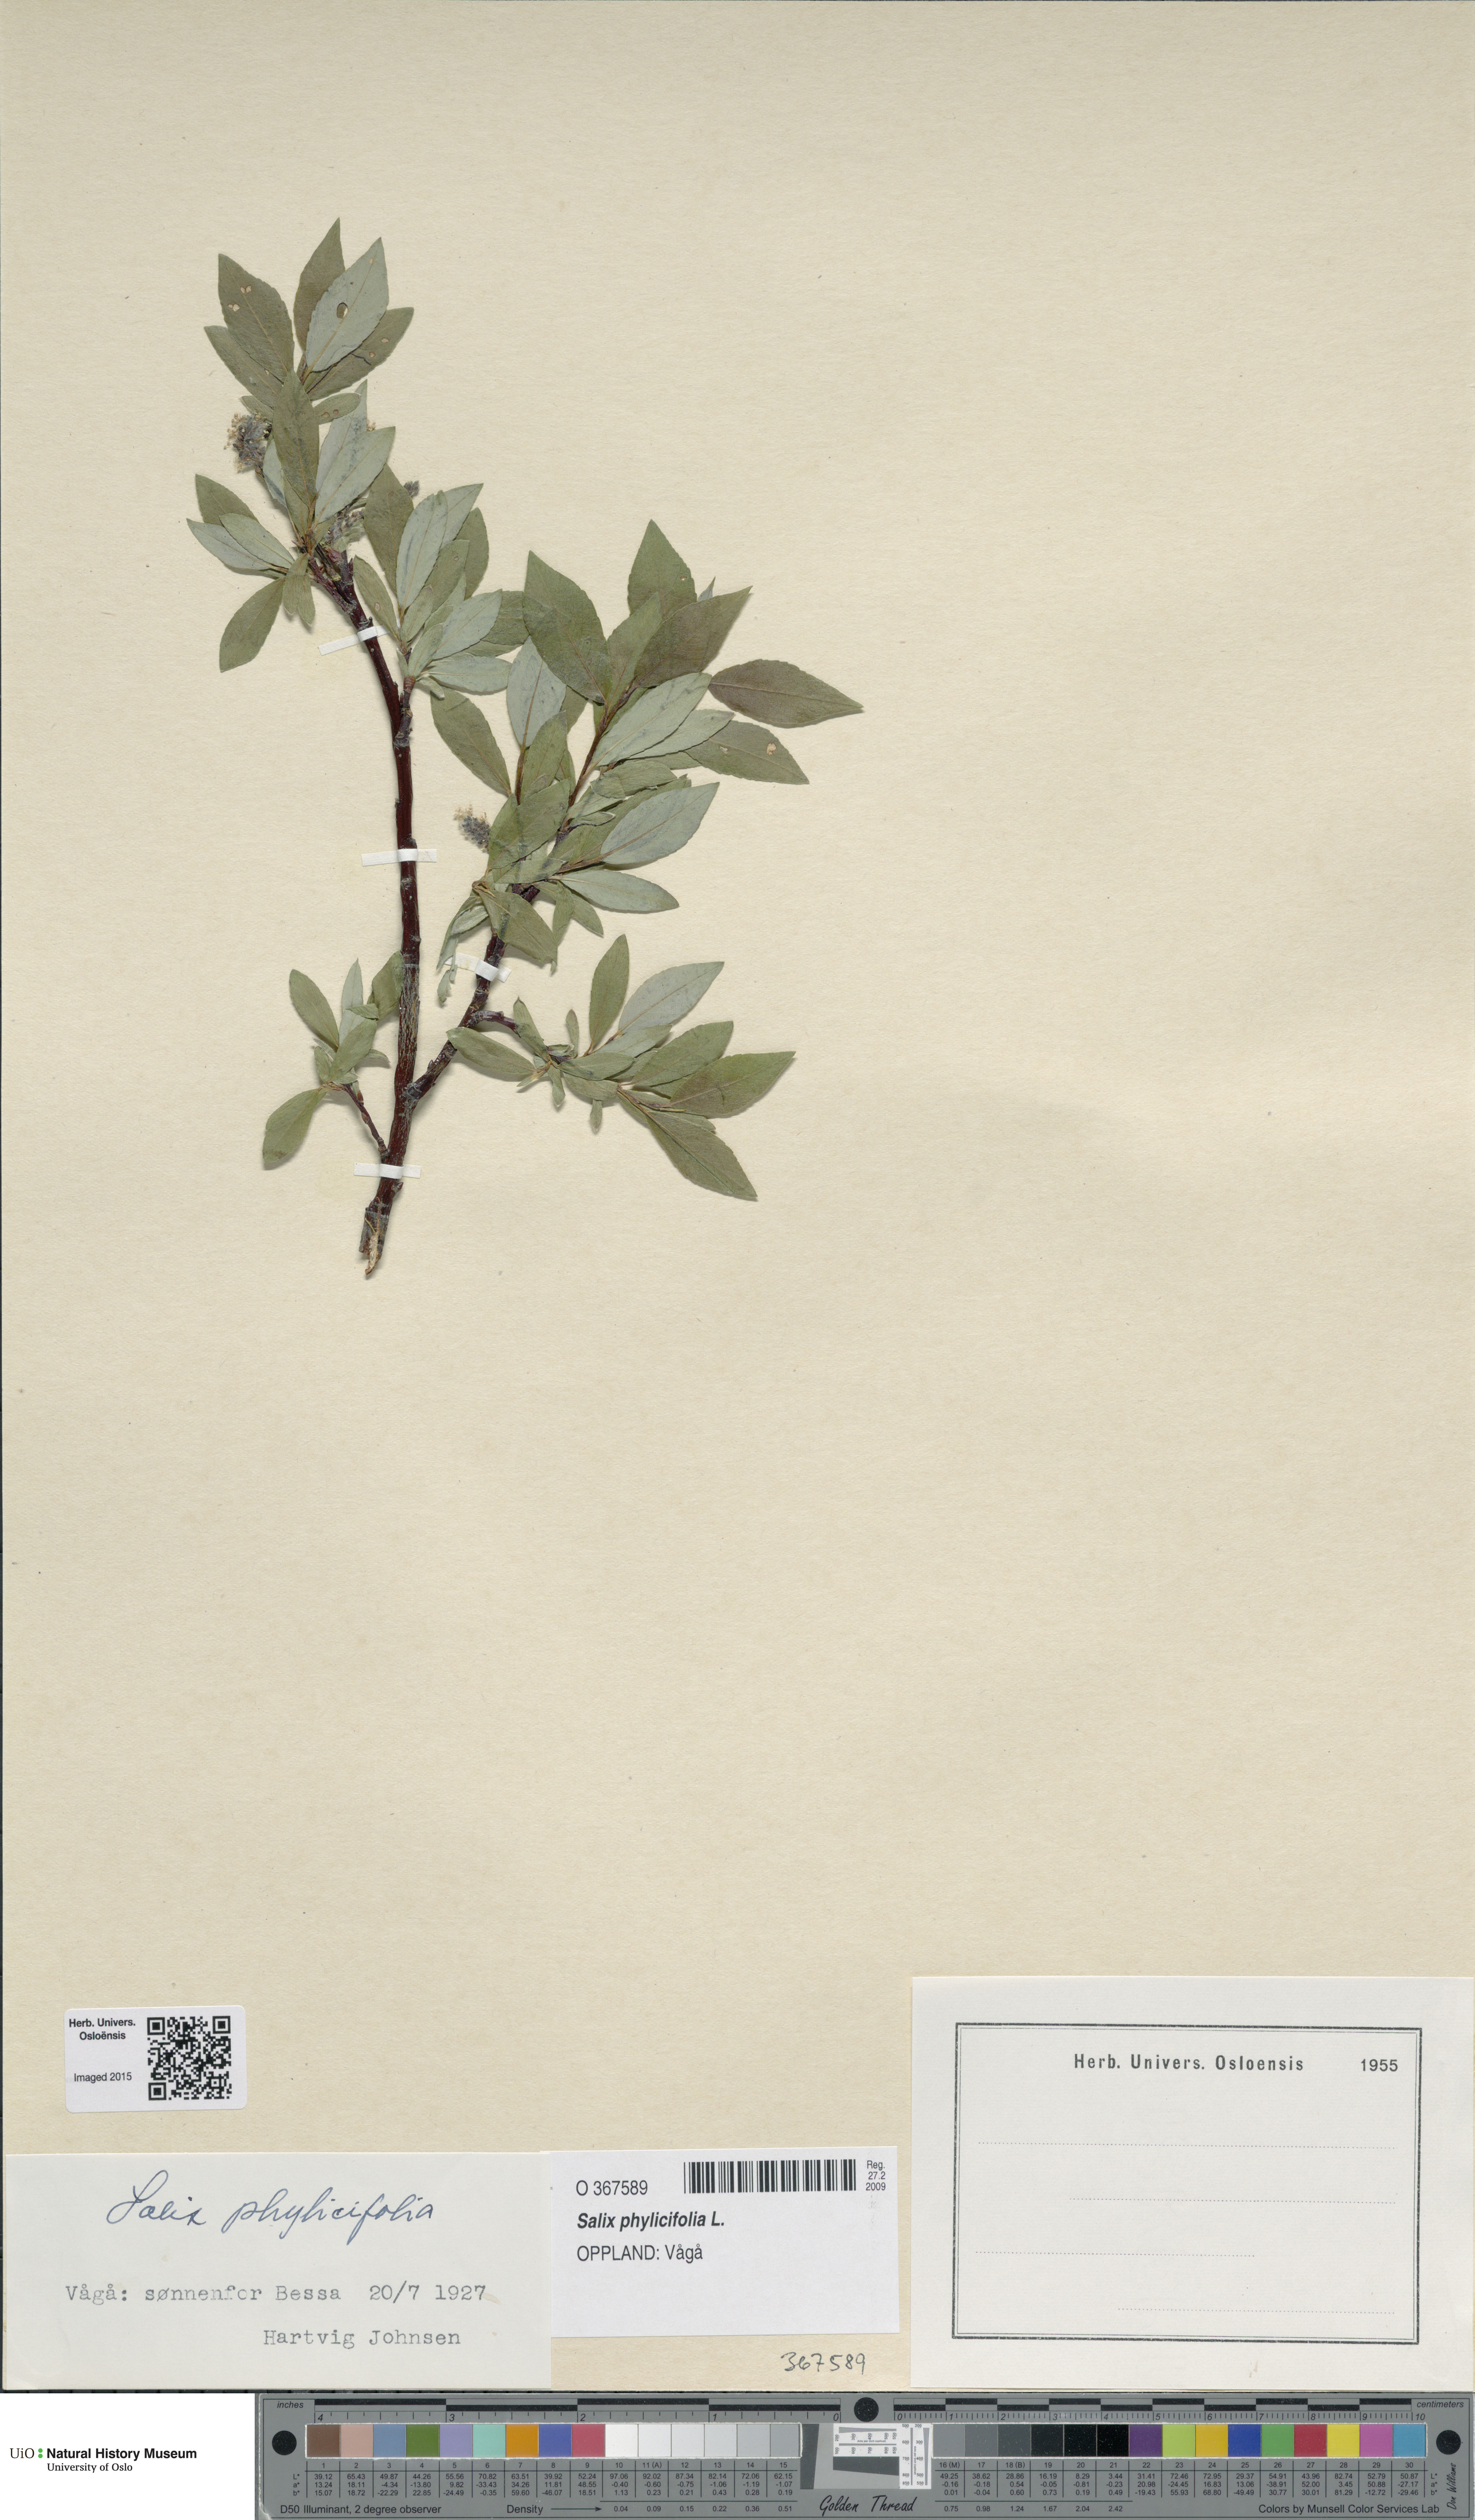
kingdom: Plantae
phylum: Tracheophyta
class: Magnoliopsida
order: Malpighiales
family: Salicaceae
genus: Salix
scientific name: Salix phylicifolia
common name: Tea-leaved willow
